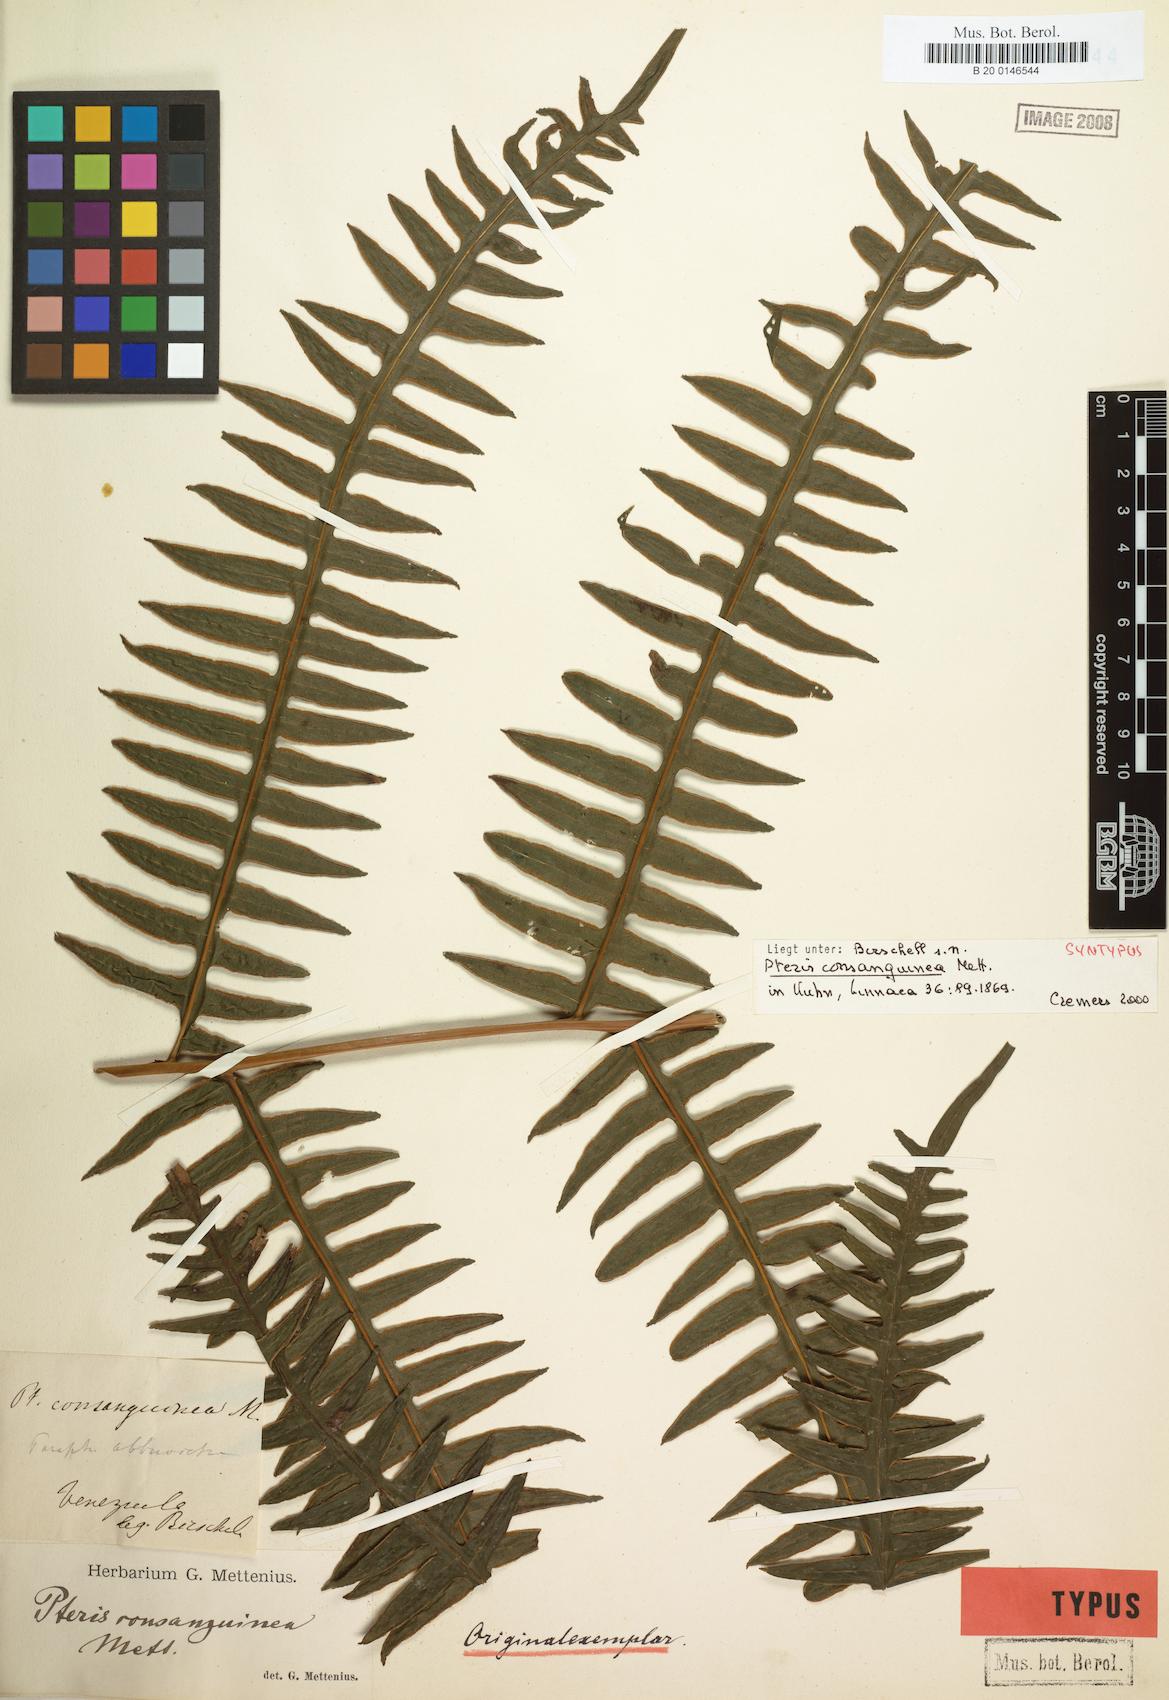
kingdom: Plantae
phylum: Tracheophyta
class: Polypodiopsida
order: Polypodiales
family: Pteridaceae
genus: Pteris
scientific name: Pteris consanguinea
